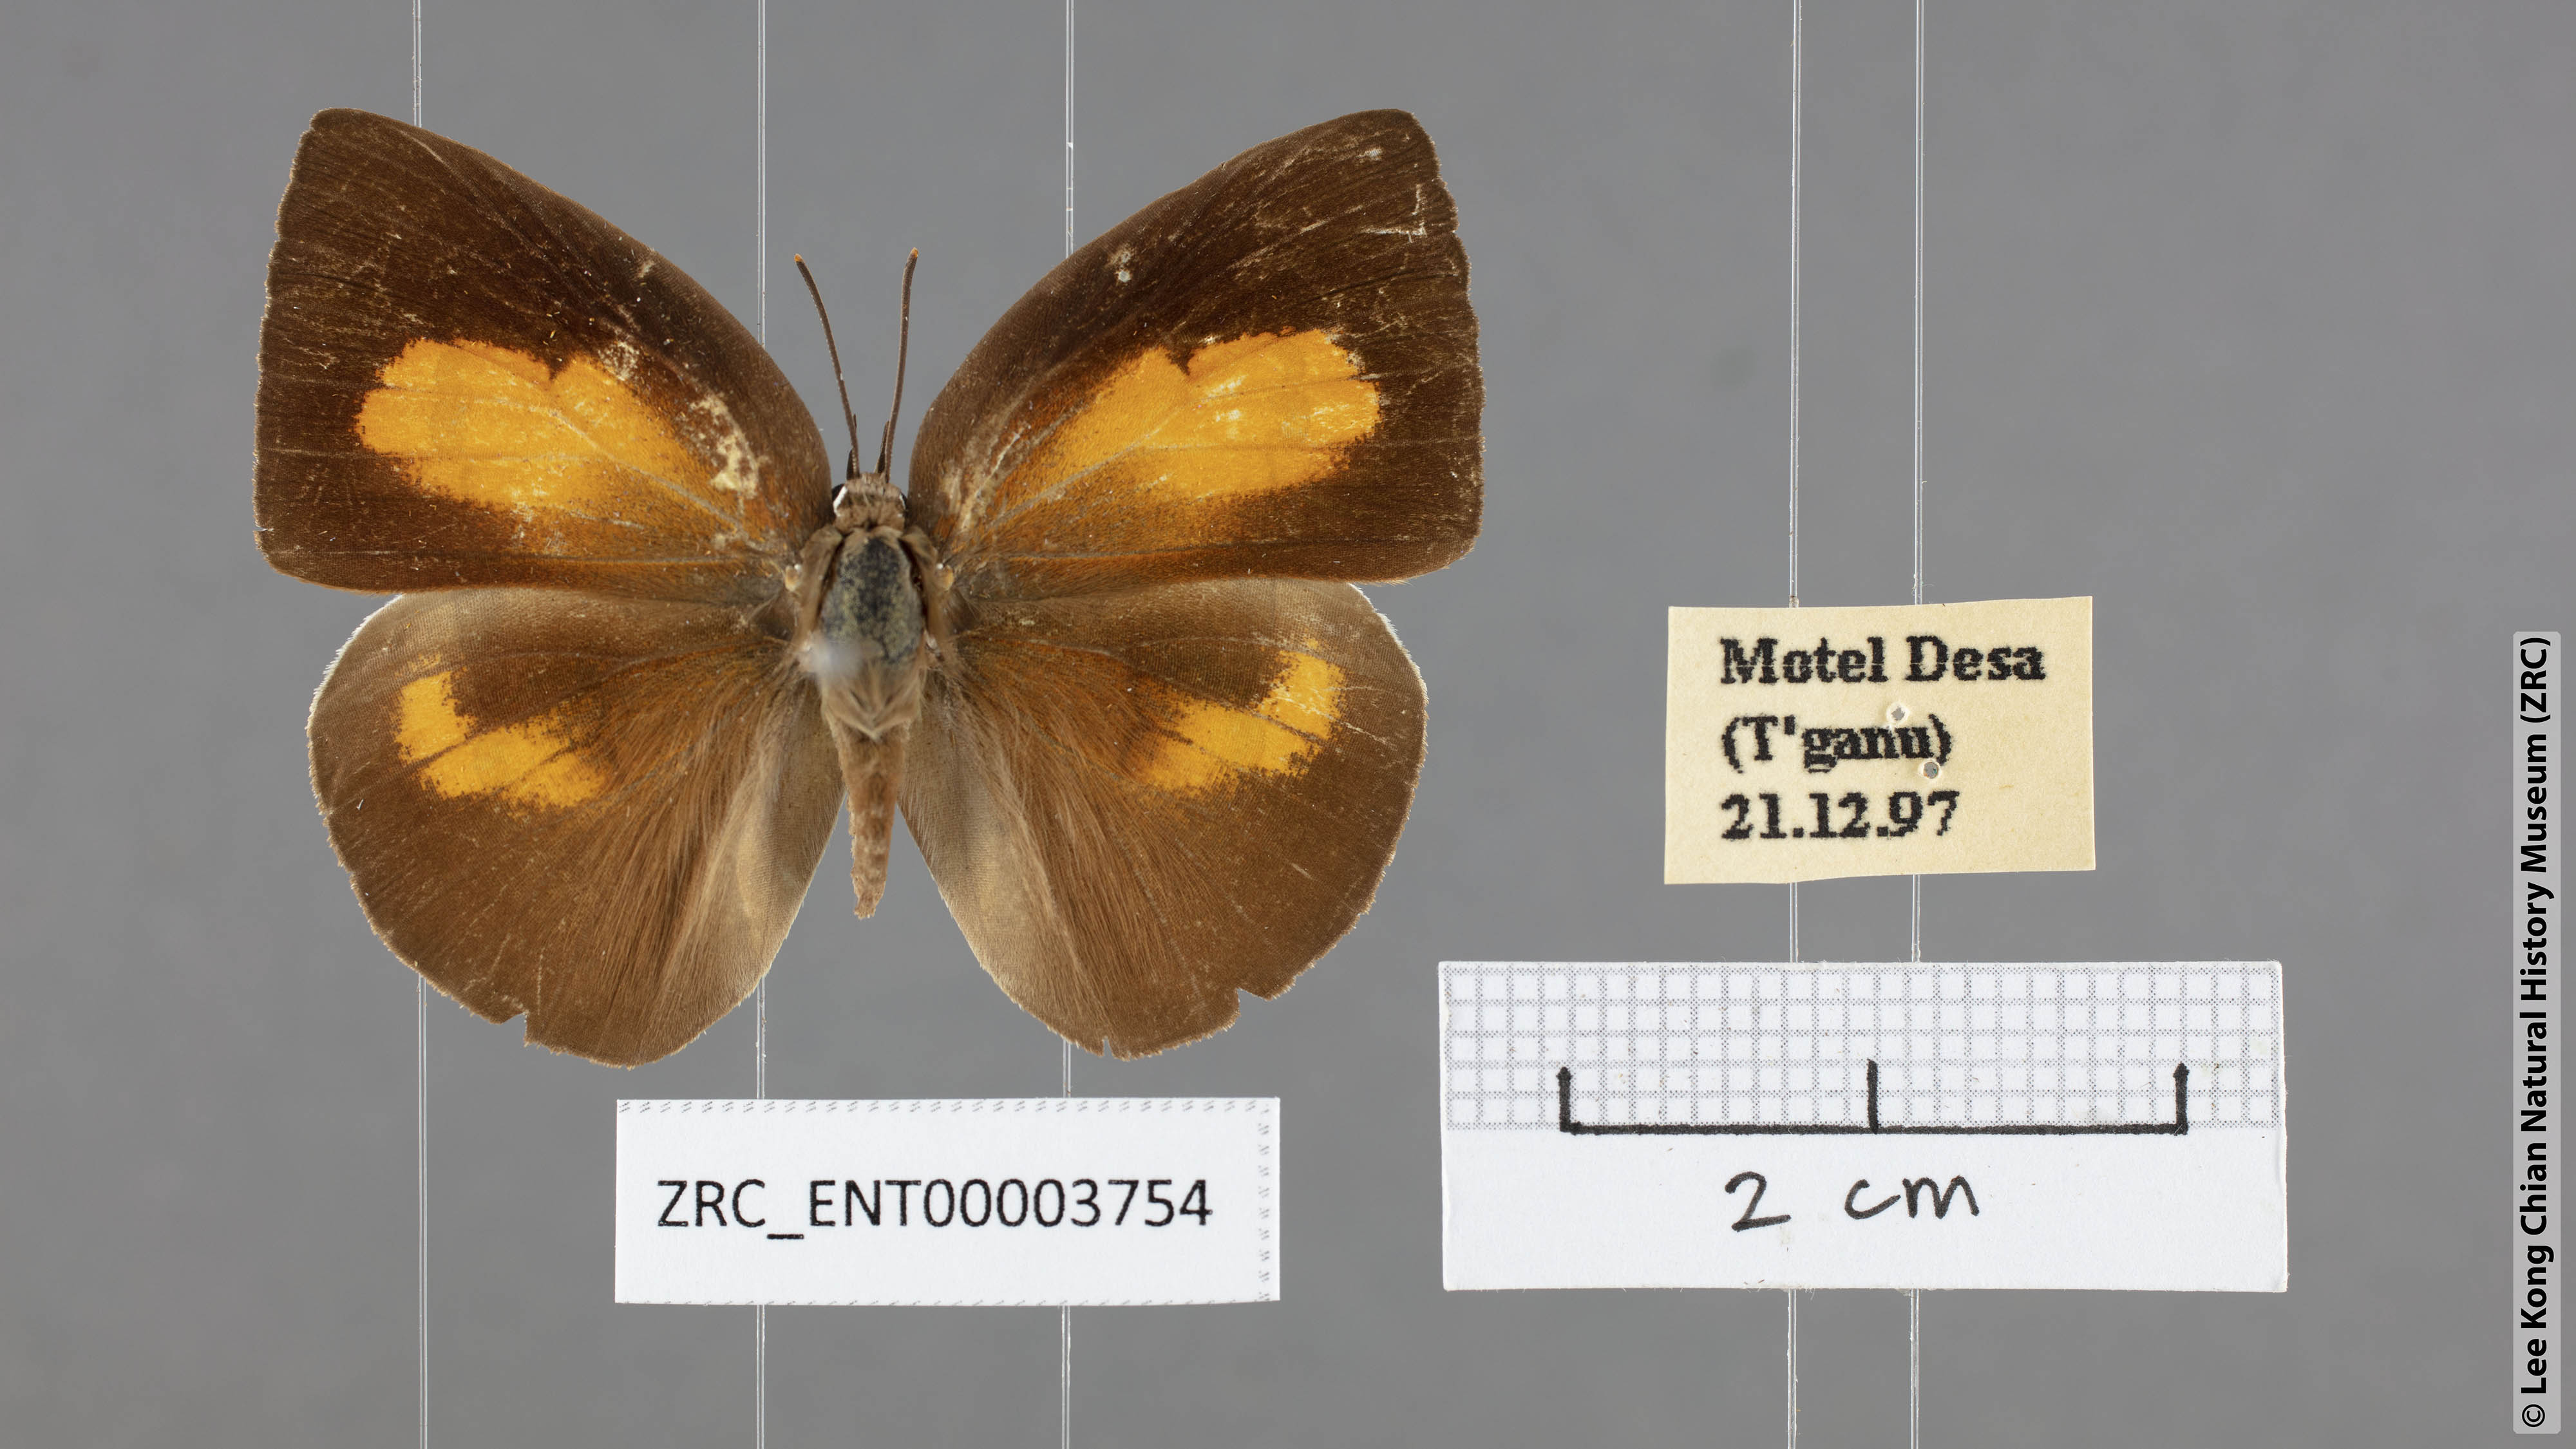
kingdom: Animalia
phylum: Arthropoda
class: Insecta
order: Lepidoptera
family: Lycaenidae
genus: Curetis
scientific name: Curetis saronis
